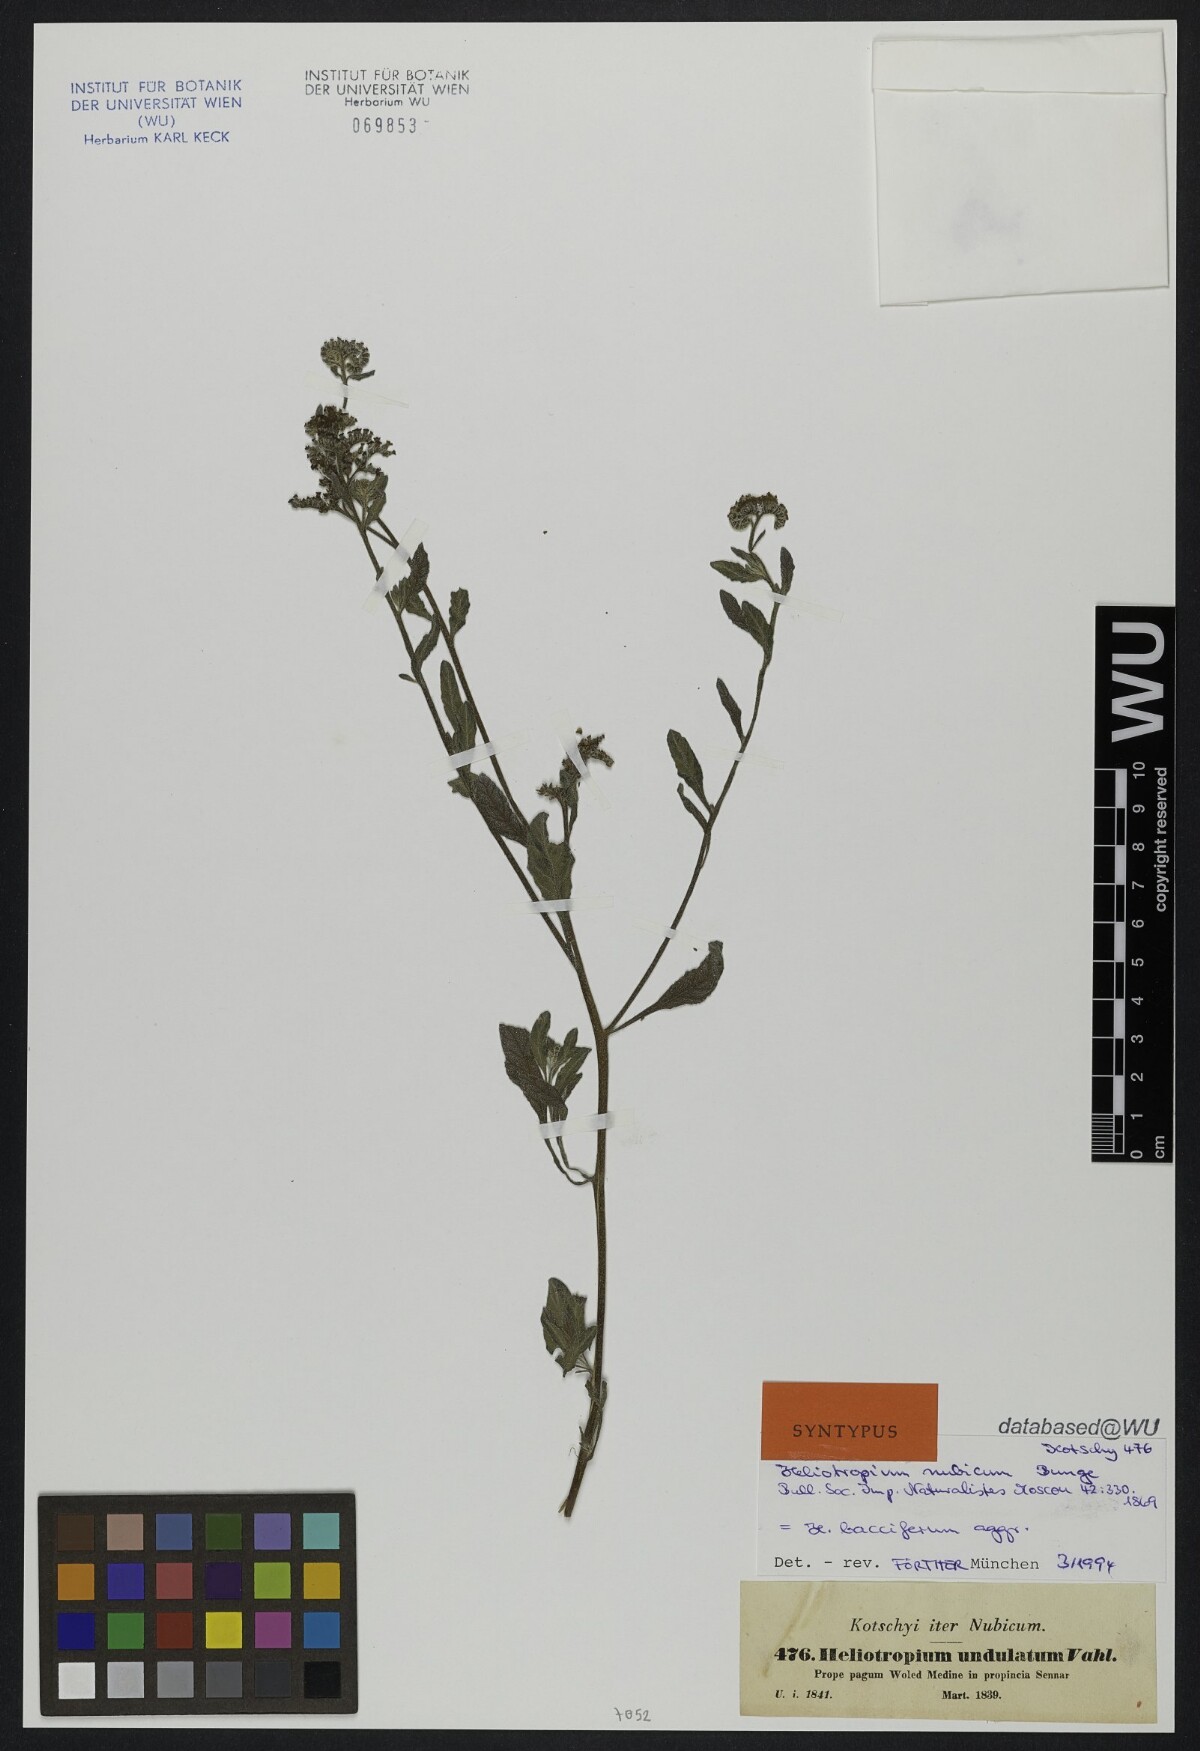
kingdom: Plantae
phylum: Tracheophyta
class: Magnoliopsida
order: Boraginales
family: Heliotropiaceae
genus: Heliotropium
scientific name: Heliotropium bacciferum
